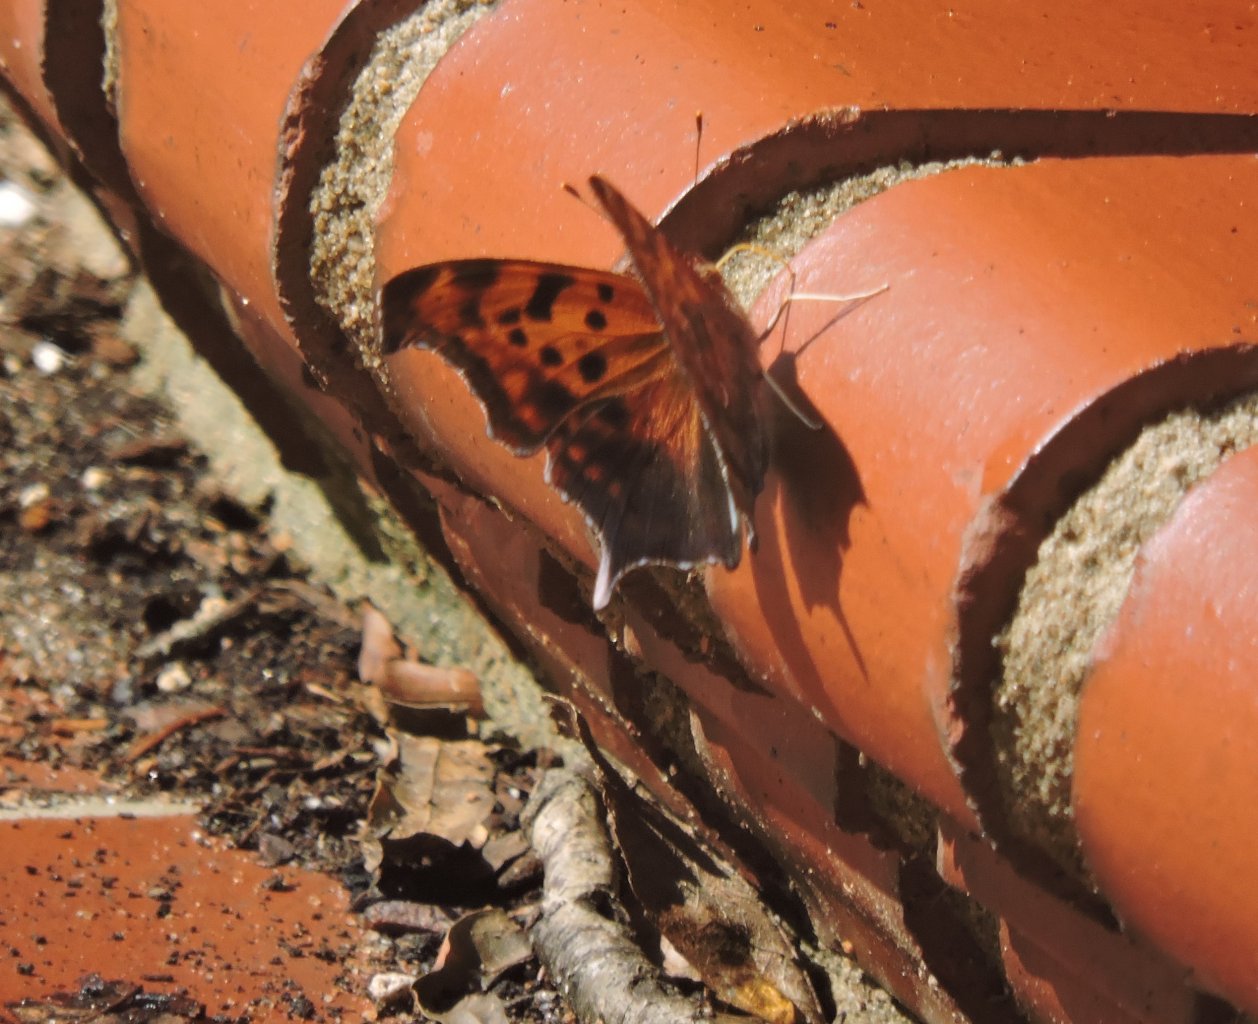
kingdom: Animalia
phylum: Arthropoda
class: Insecta
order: Lepidoptera
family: Nymphalidae
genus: Polygonia
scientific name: Polygonia interrogationis
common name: Question Mark
